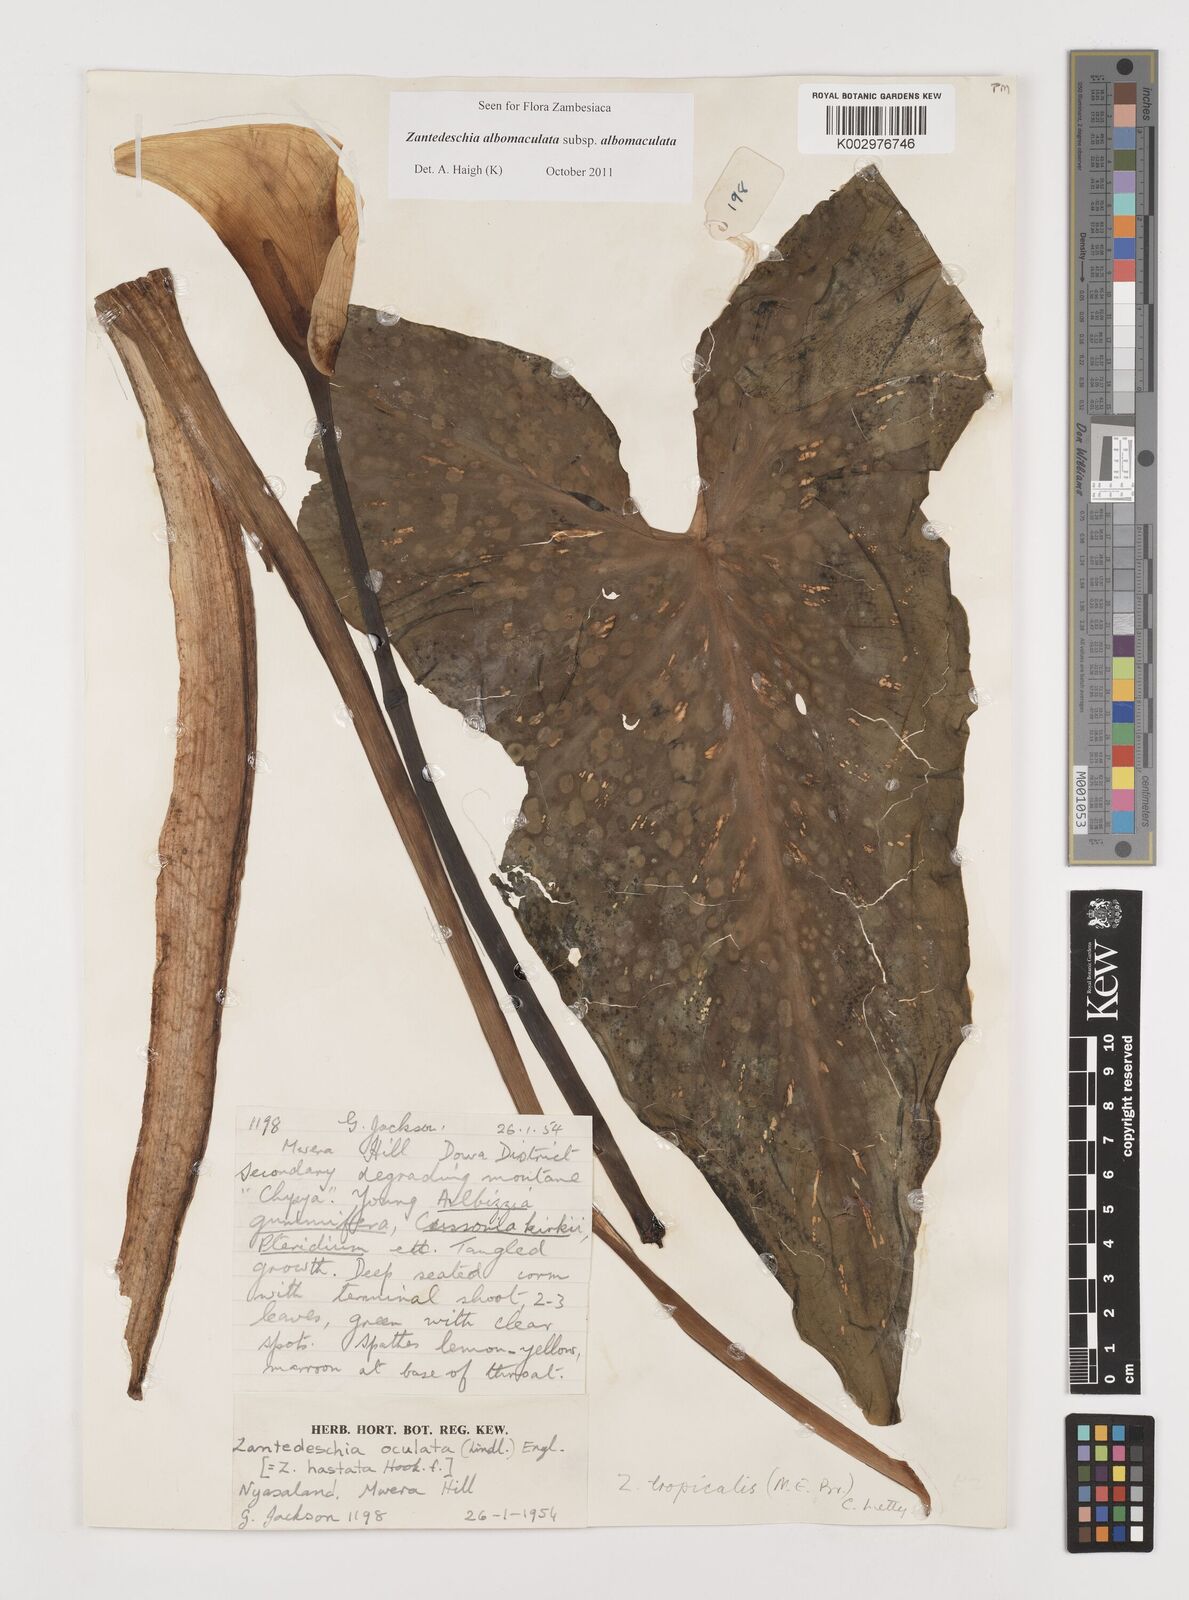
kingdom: Plantae
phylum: Tracheophyta
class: Liliopsida
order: Alismatales
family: Araceae
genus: Zantedeschia
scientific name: Zantedeschia albomaculata
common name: Spotted calla lily
